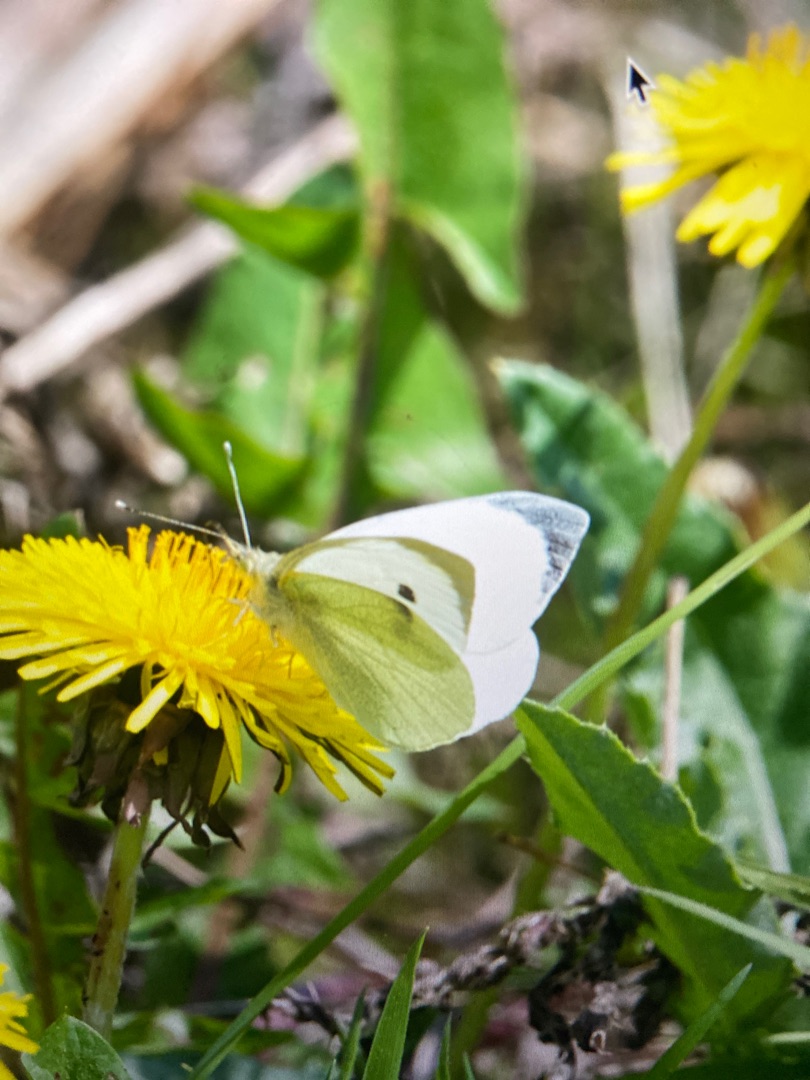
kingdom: Animalia
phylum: Arthropoda
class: Insecta
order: Lepidoptera
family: Pieridae
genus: Pieris
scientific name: Pieris brassicae
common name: Stor kålsommerfugl
